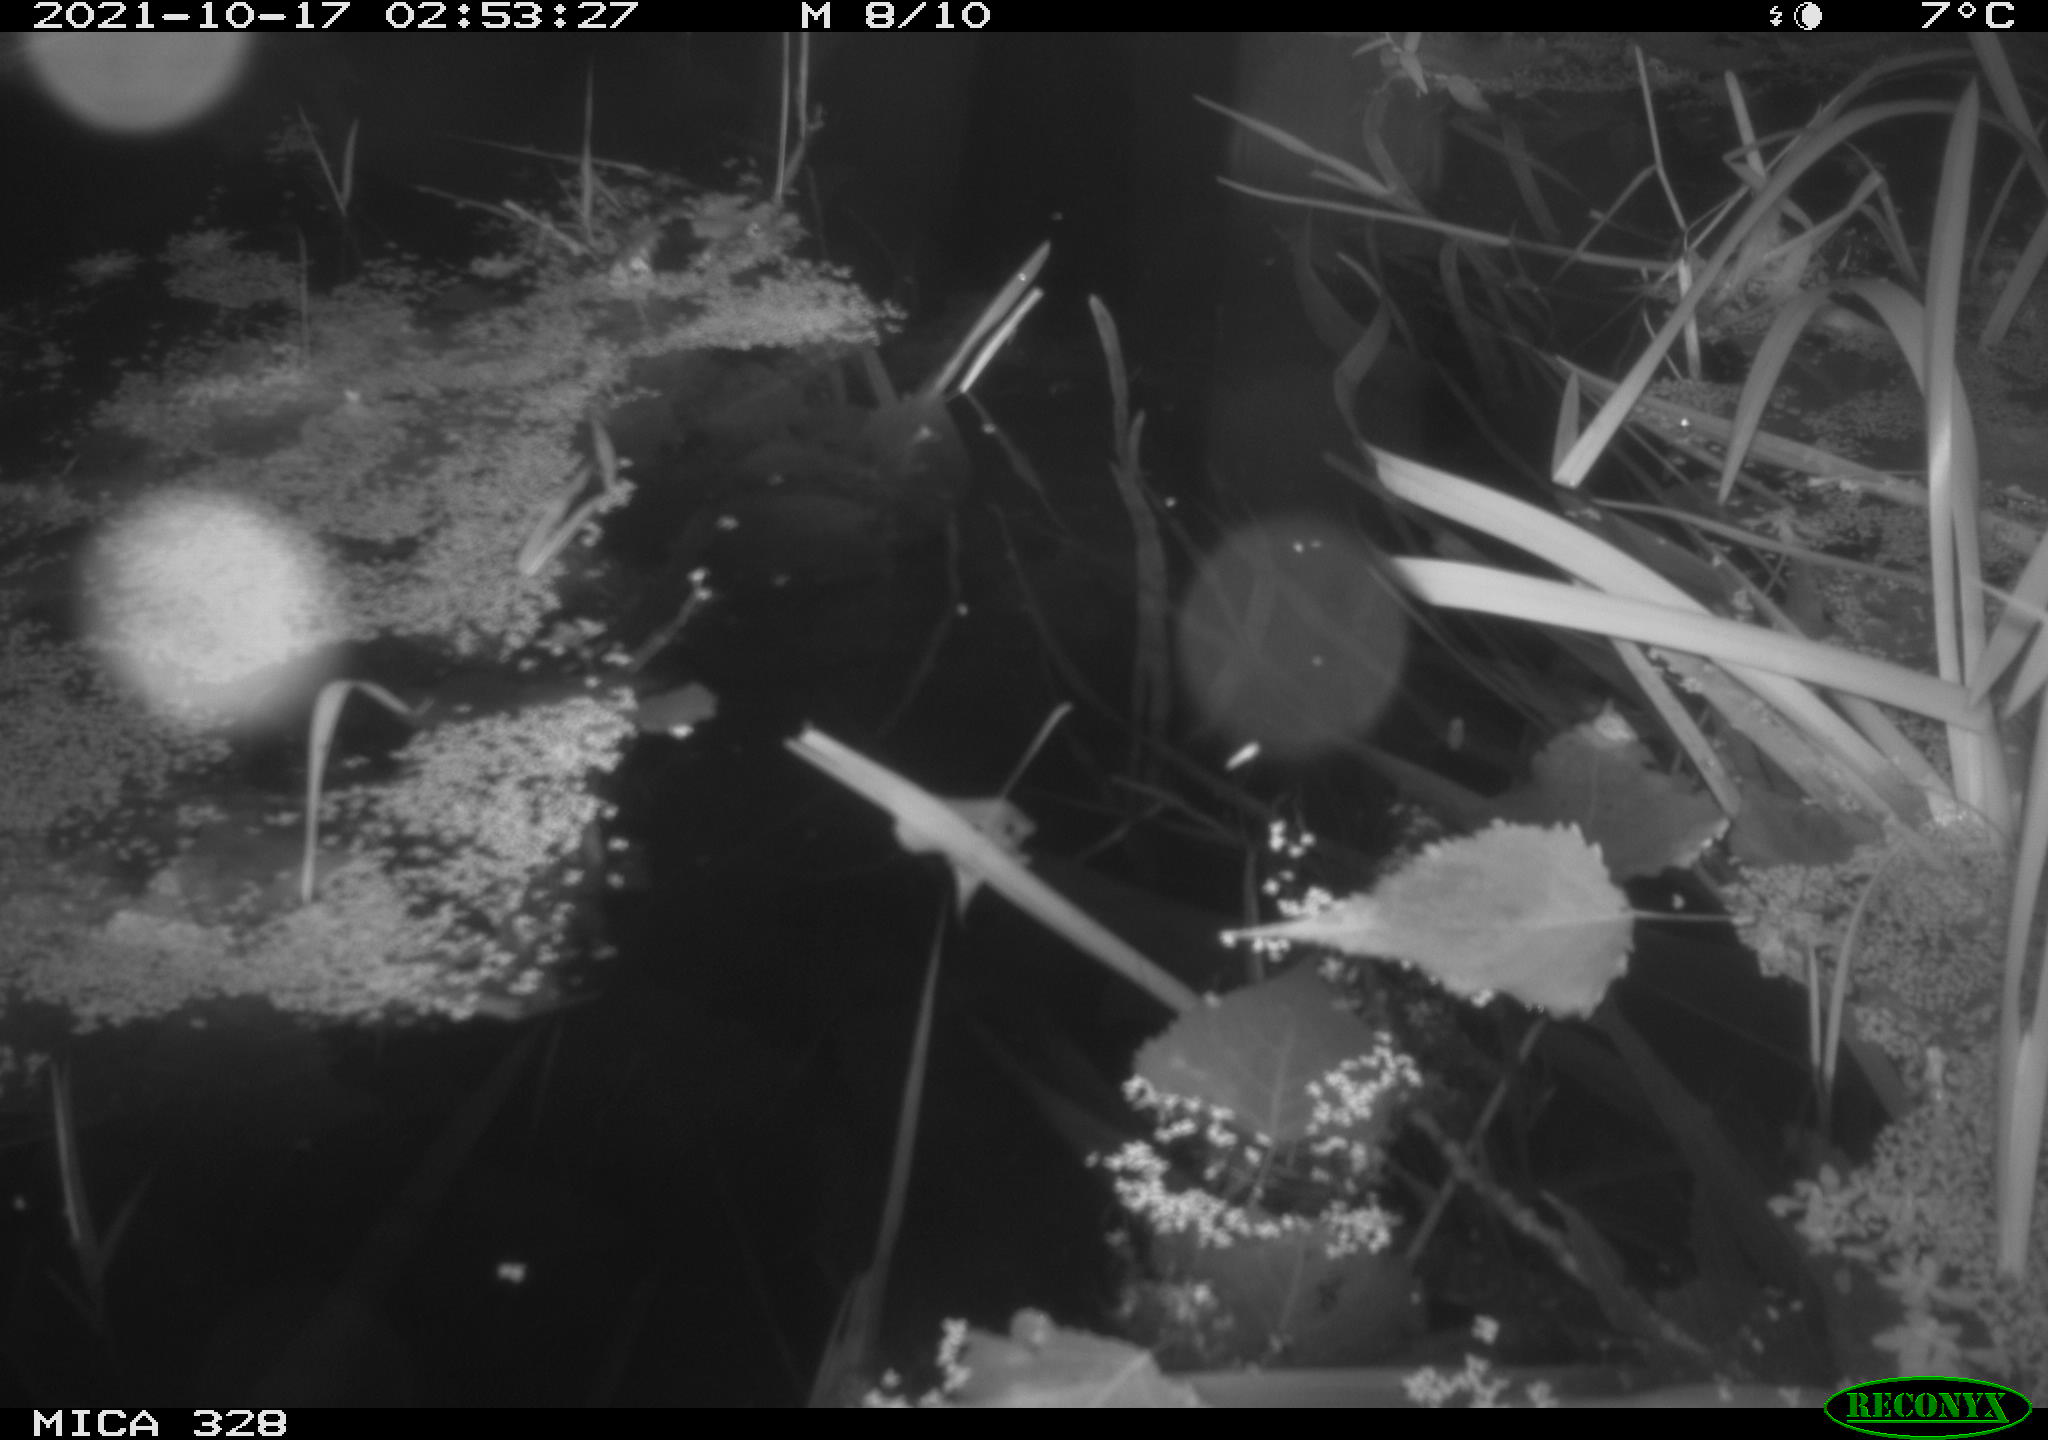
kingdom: Animalia
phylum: Chordata
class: Mammalia
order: Rodentia
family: Cricetidae
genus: Ondatra
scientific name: Ondatra zibethicus
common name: Muskrat
